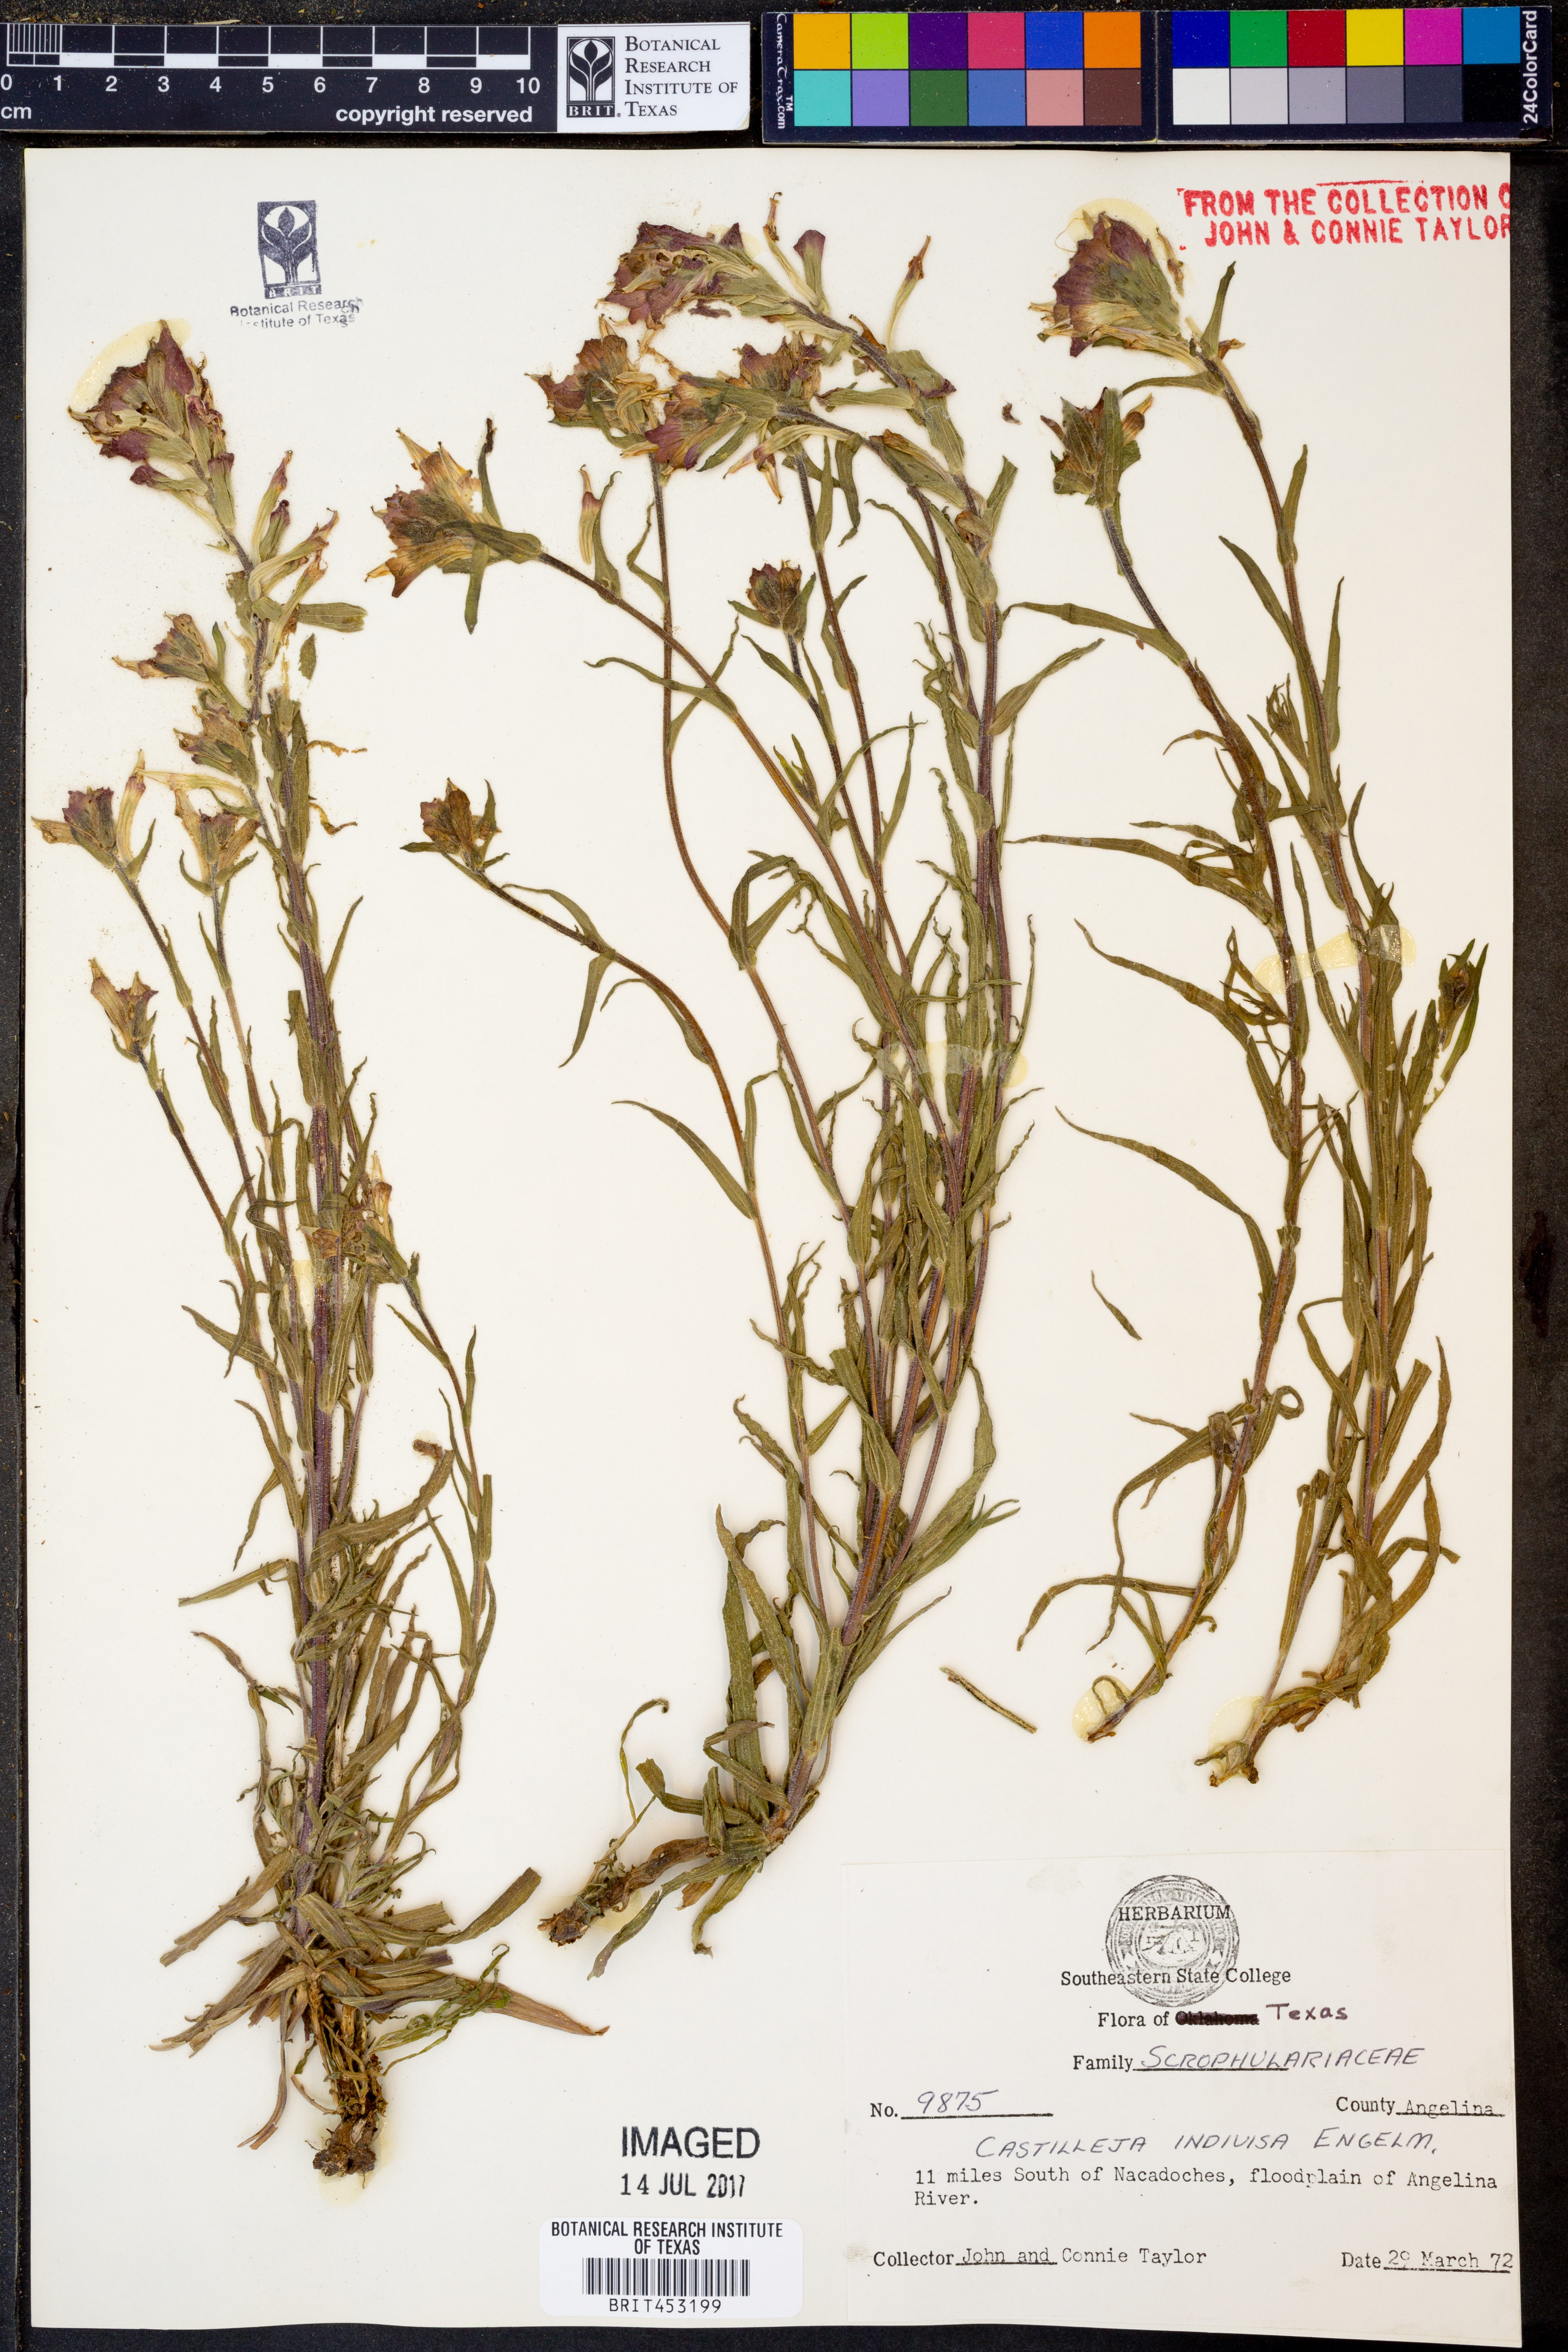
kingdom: Plantae
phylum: Tracheophyta
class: Magnoliopsida
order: Lamiales
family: Orobanchaceae
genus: Castilleja
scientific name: Castilleja indivisa
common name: Texas paintbrush
